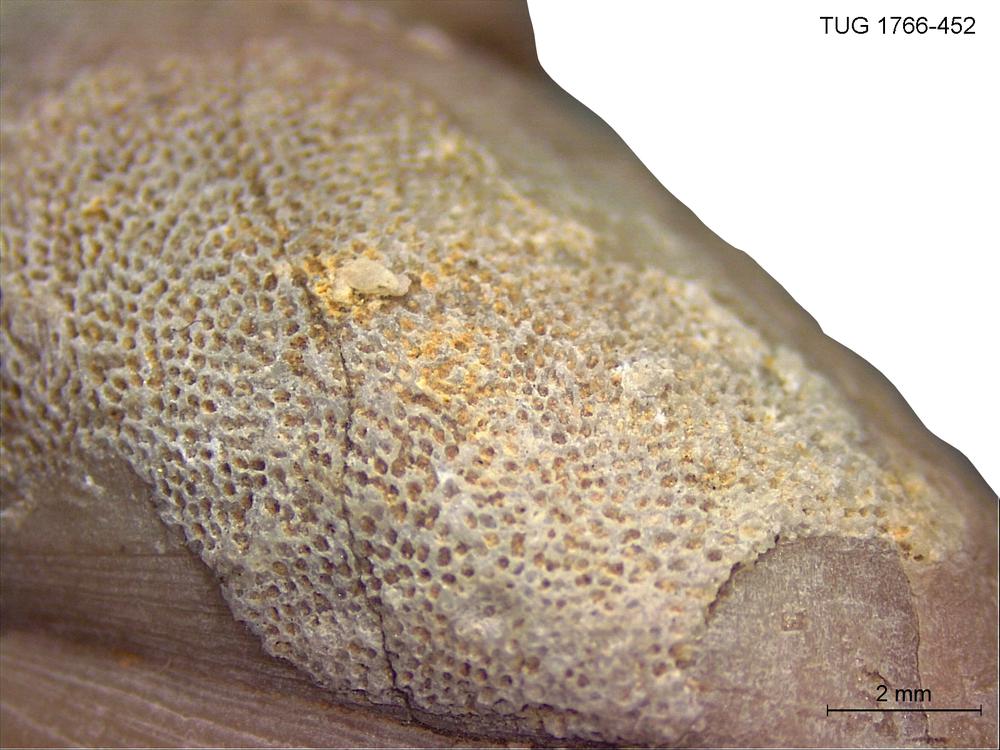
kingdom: Animalia
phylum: Bryozoa
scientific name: Bryozoa
